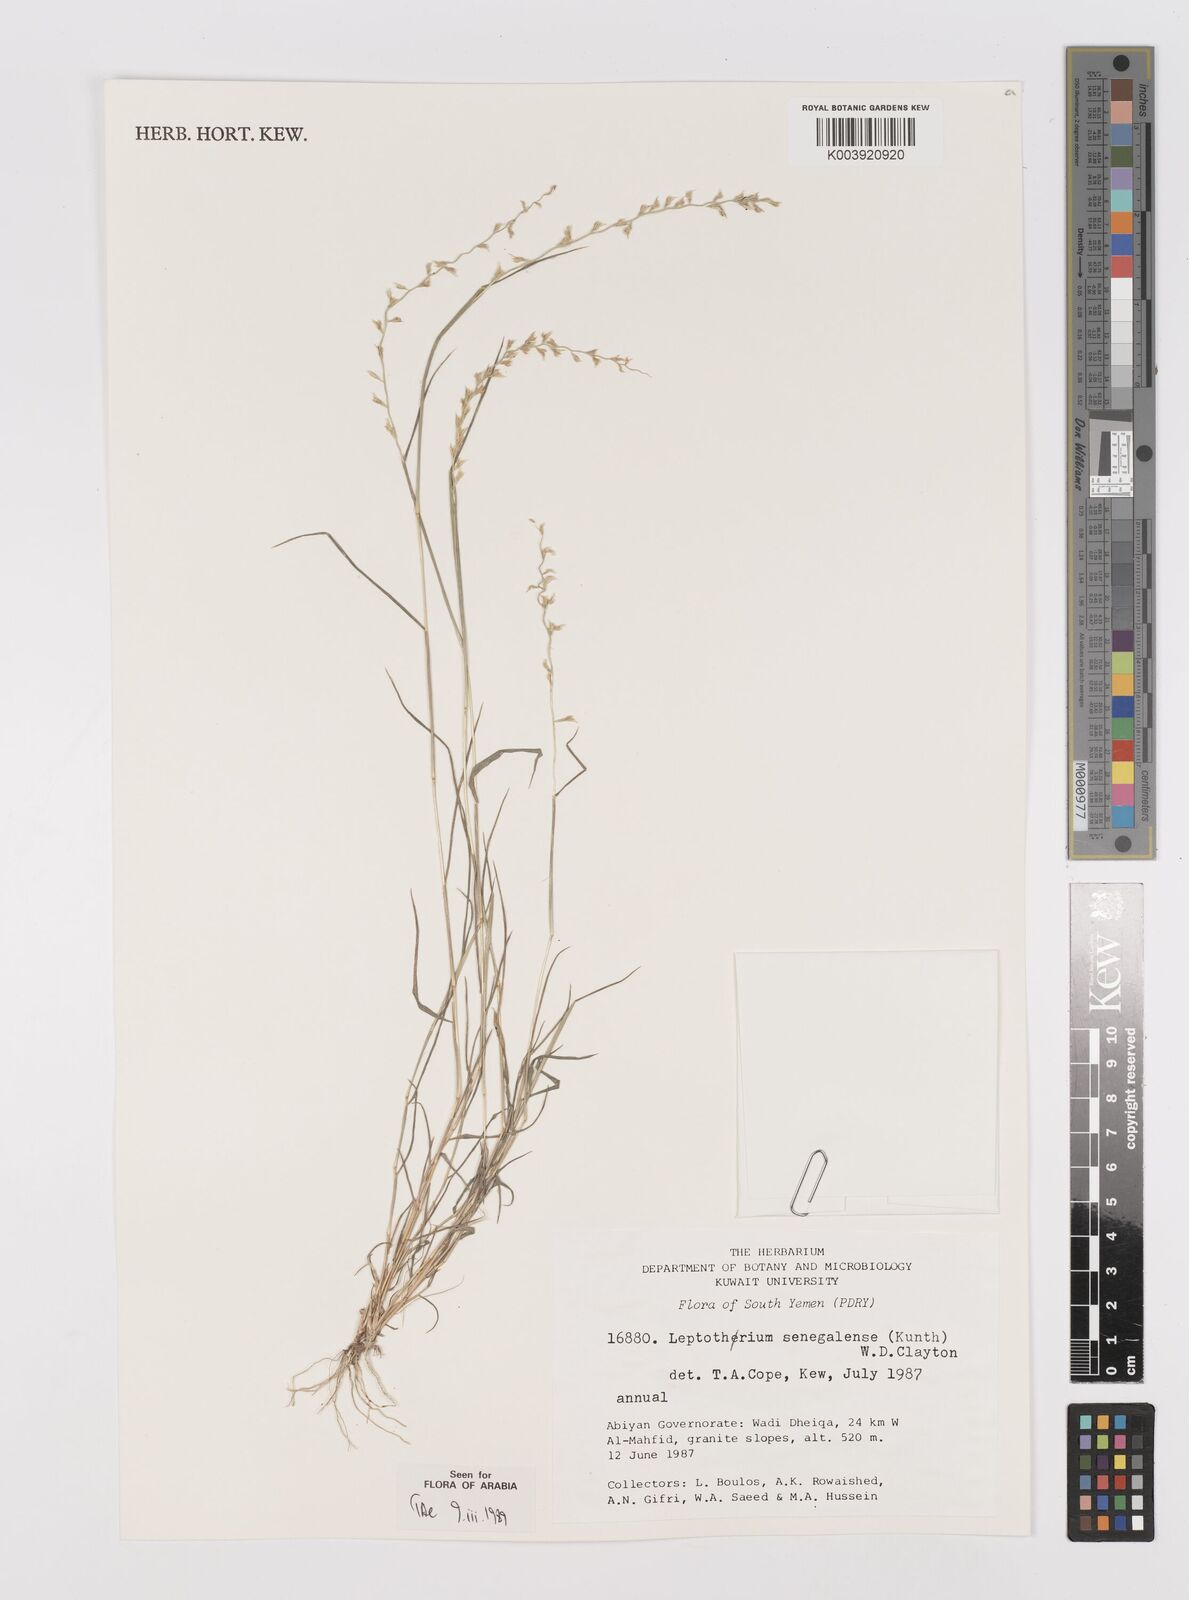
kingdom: Plantae
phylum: Tracheophyta
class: Liliopsida
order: Poales
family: Poaceae
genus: Leptothrium
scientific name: Leptothrium senegalense
